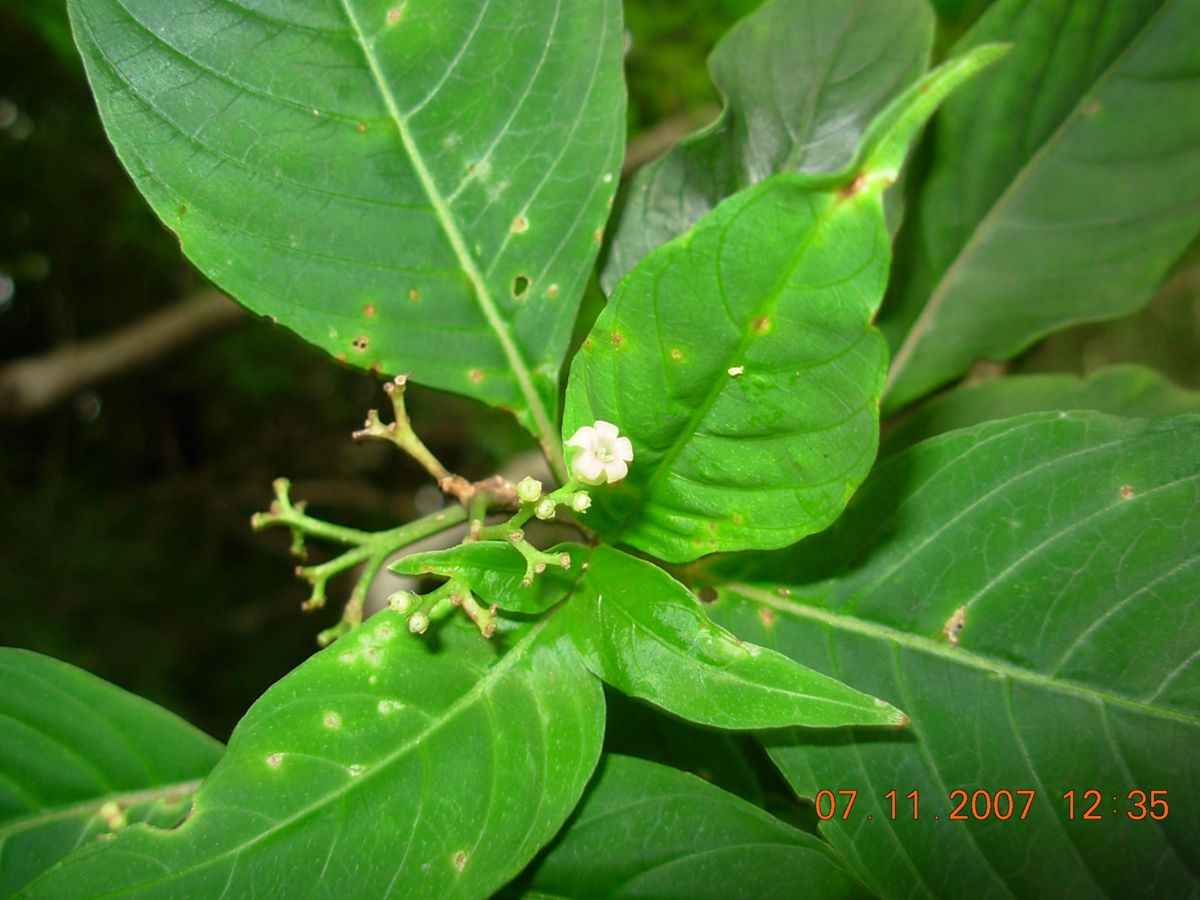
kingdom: Plantae
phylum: Tracheophyta
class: Magnoliopsida
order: Gentianales
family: Rubiaceae
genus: Palicourea
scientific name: Palicourea pubescens
